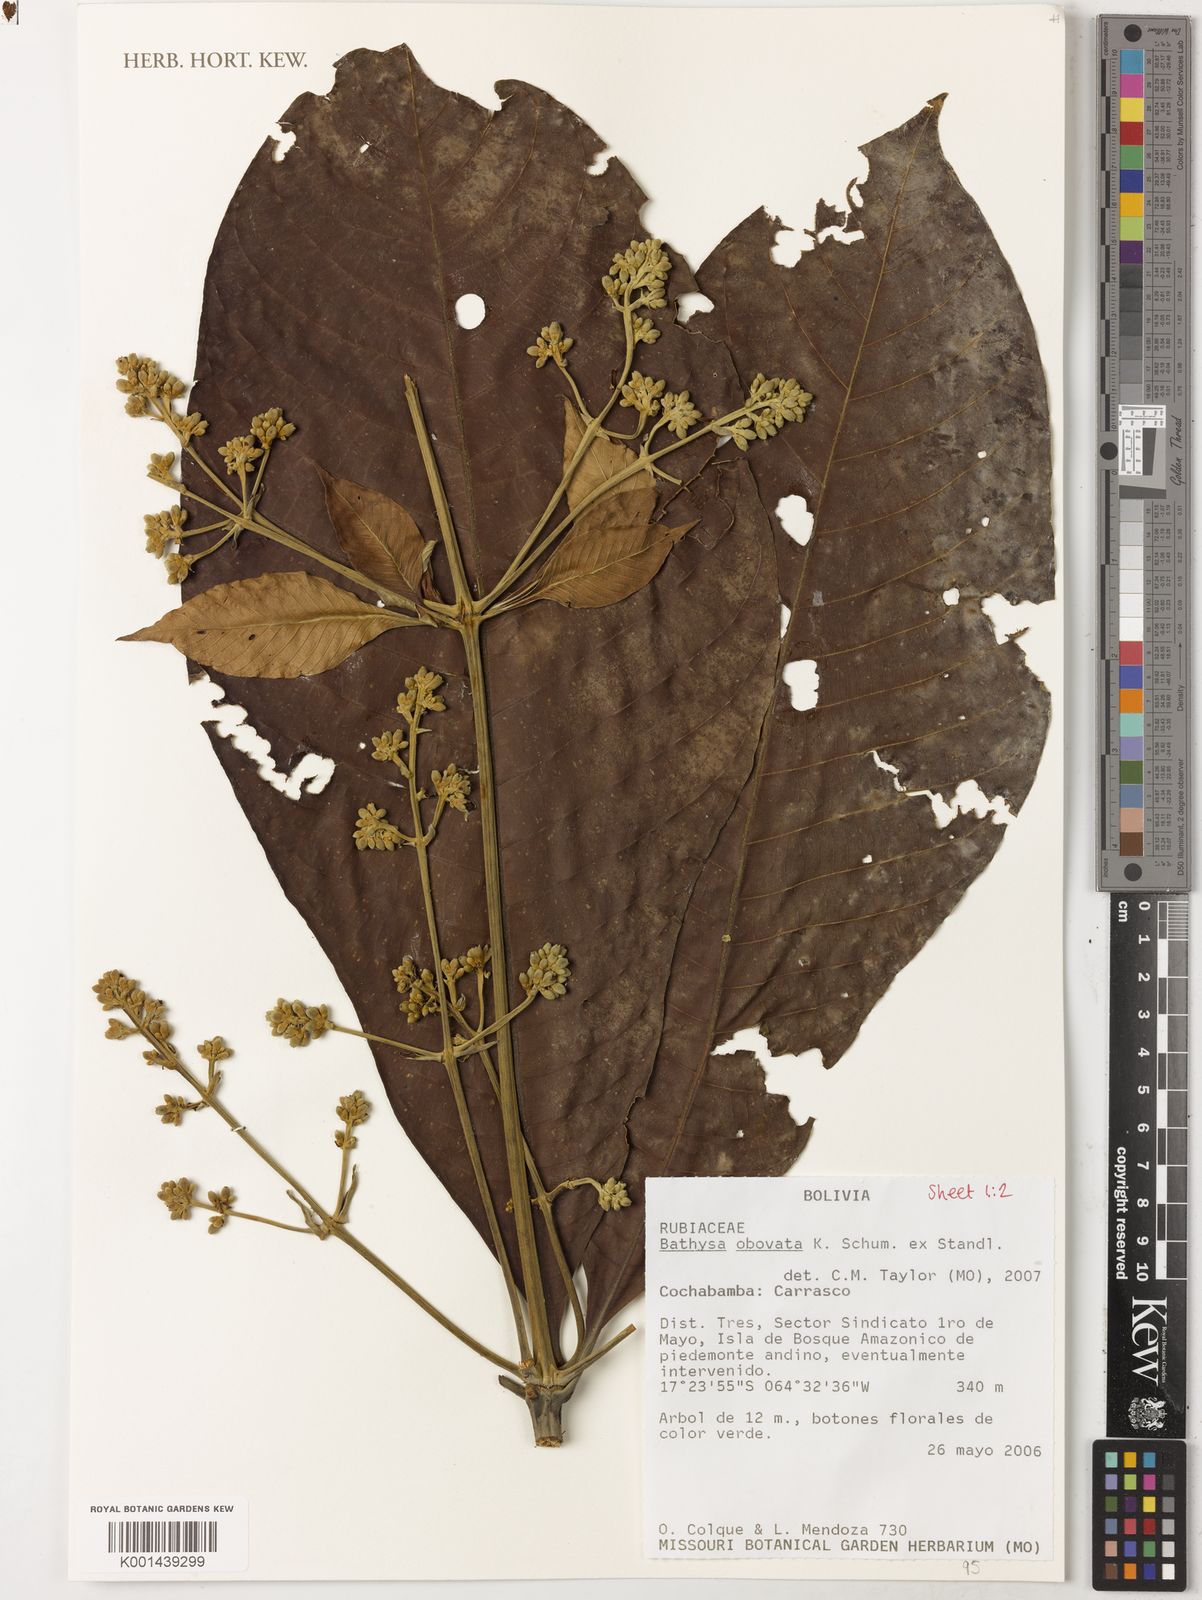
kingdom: Plantae
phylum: Tracheophyta
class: Magnoliopsida
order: Gentianales
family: Rubiaceae
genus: Schizocalyx
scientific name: Schizocalyx obovatus
